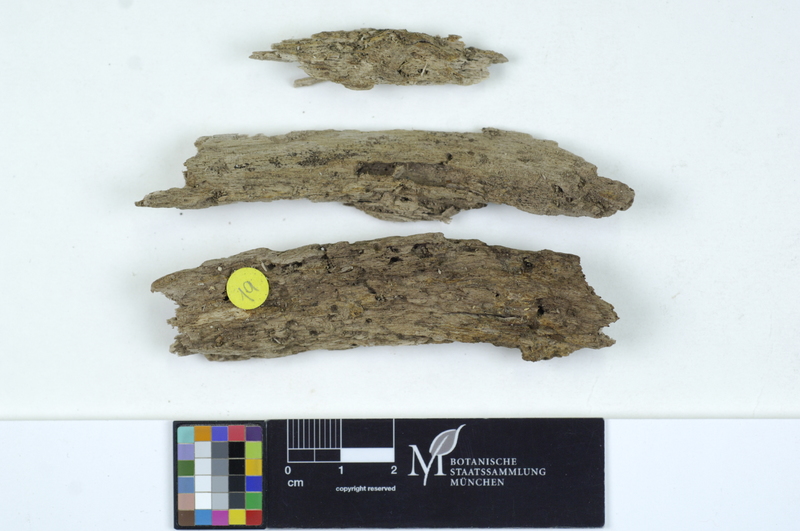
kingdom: Fungi
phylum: Basidiomycota
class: Agaricomycetes
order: Auriculariales
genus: Stypella
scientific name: Stypella subhyalina
